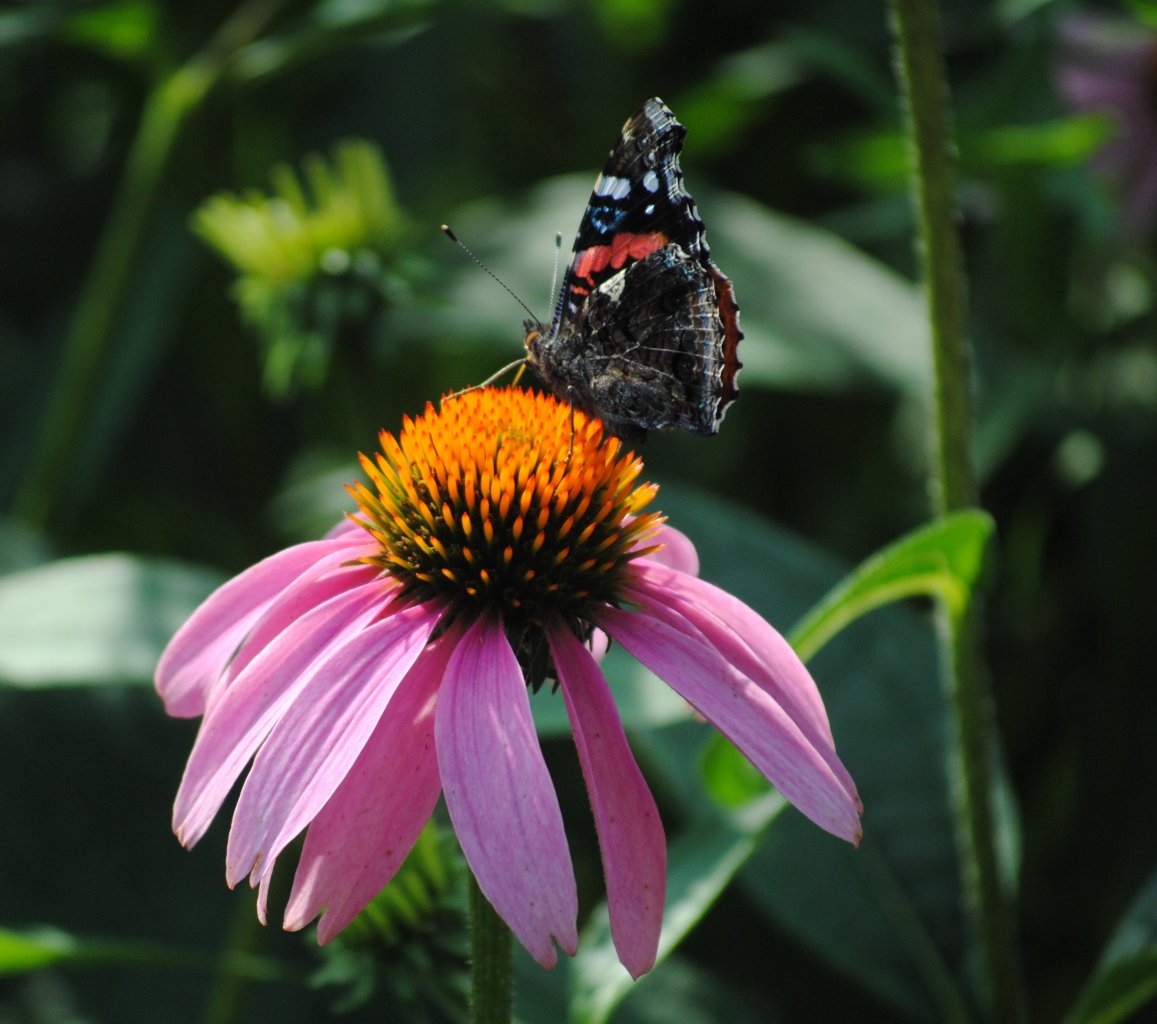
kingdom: Animalia
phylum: Arthropoda
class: Insecta
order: Lepidoptera
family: Nymphalidae
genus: Vanessa
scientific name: Vanessa atalanta
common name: Red Admiral
